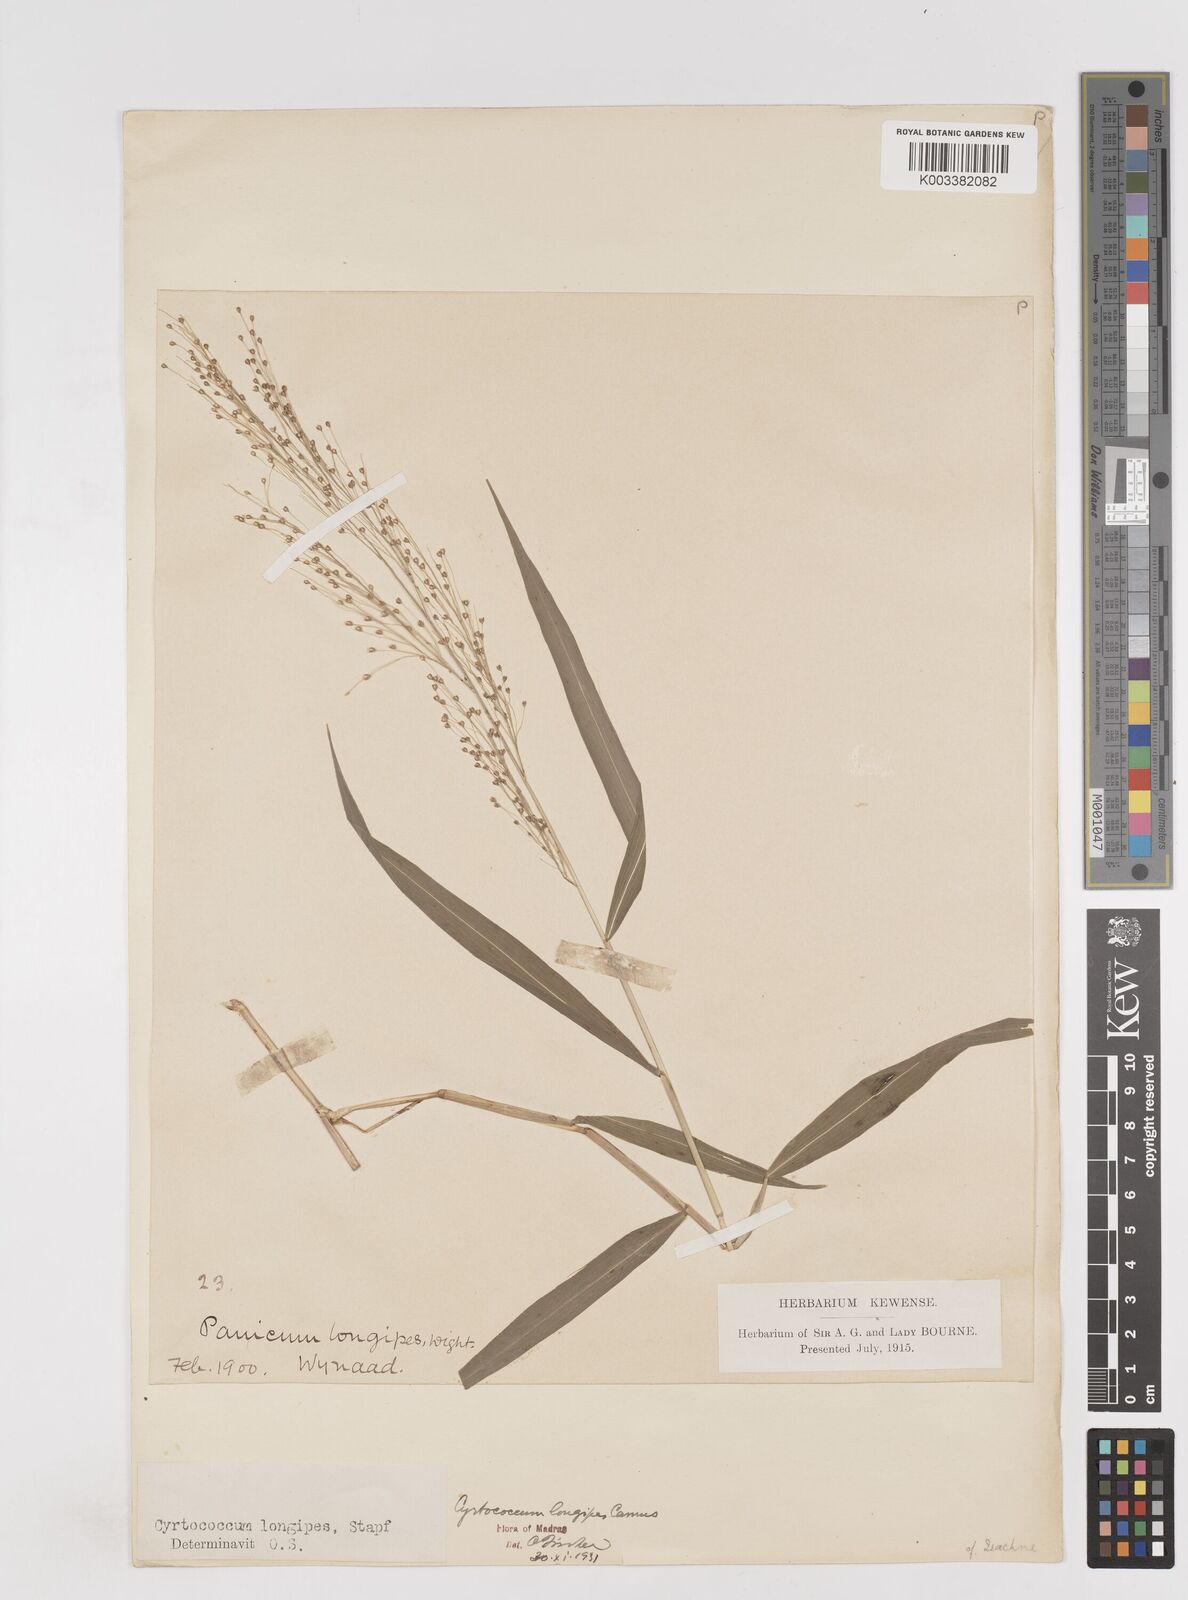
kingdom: Plantae
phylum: Tracheophyta
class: Liliopsida
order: Poales
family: Poaceae
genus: Cyrtococcum
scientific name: Cyrtococcum longipes
